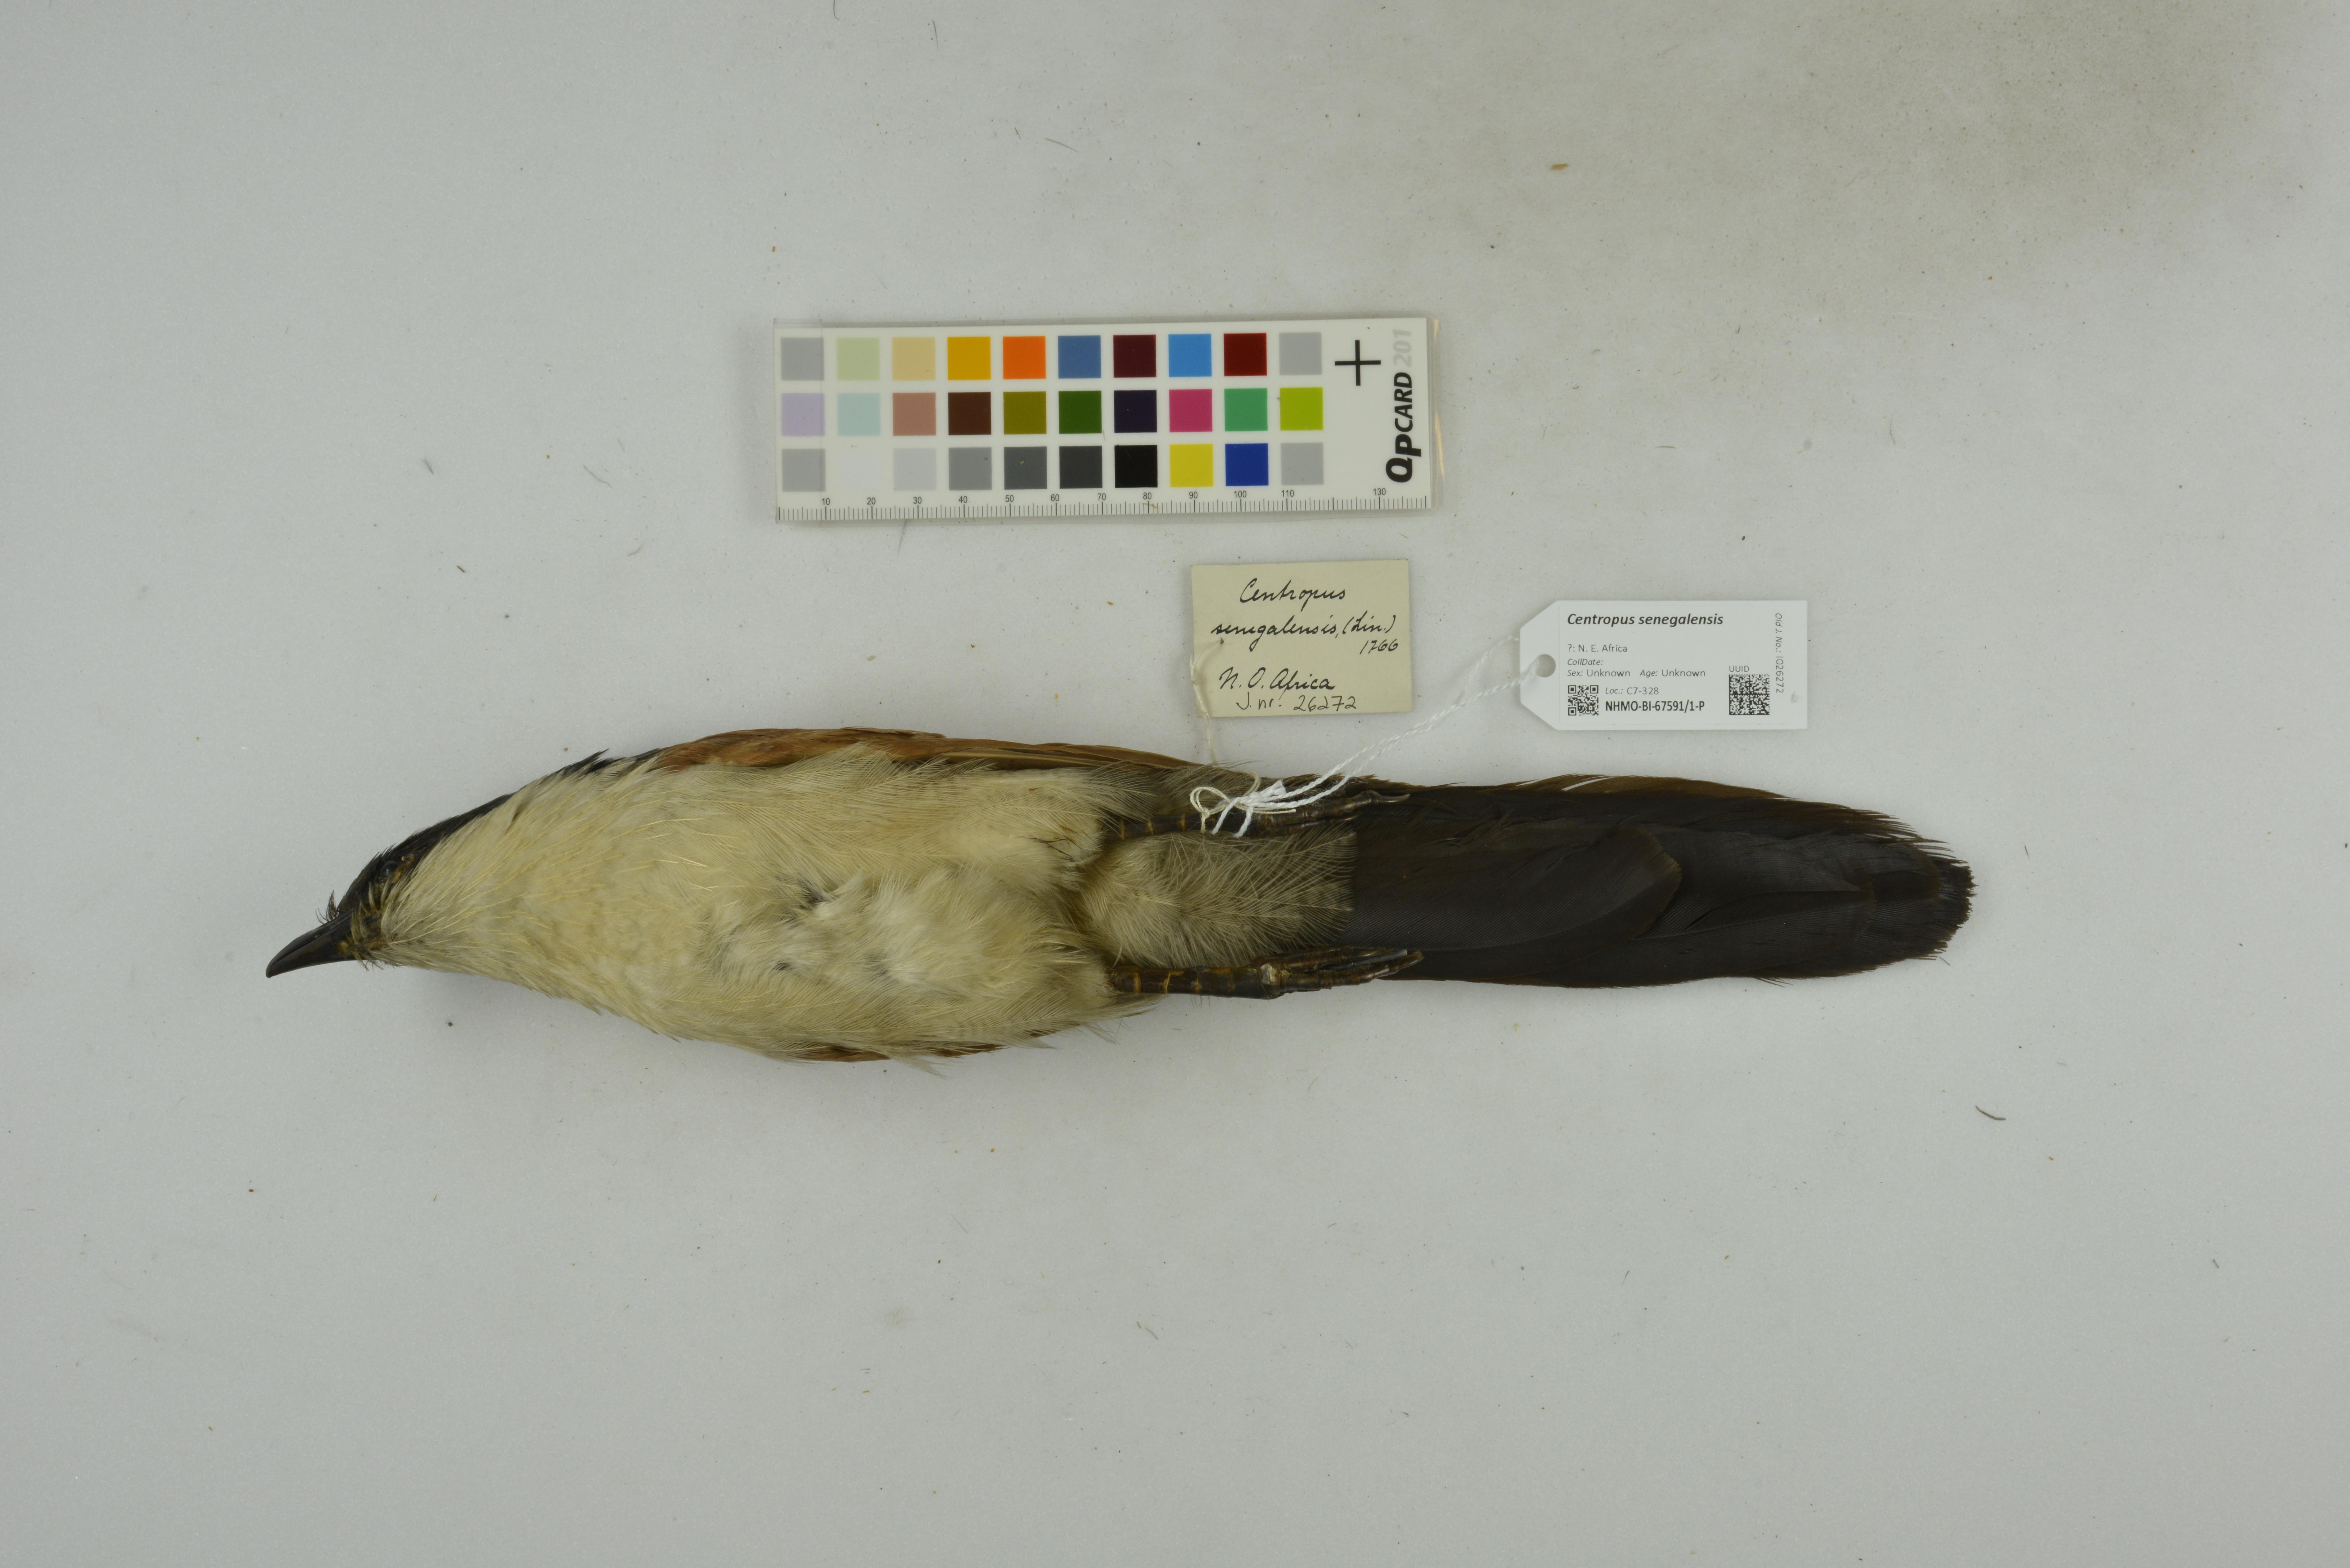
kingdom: Animalia
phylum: Chordata
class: Aves
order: Cuculiformes
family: Cuculidae
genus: Centropus
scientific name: Centropus senegalensis
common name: Senegal coucal
